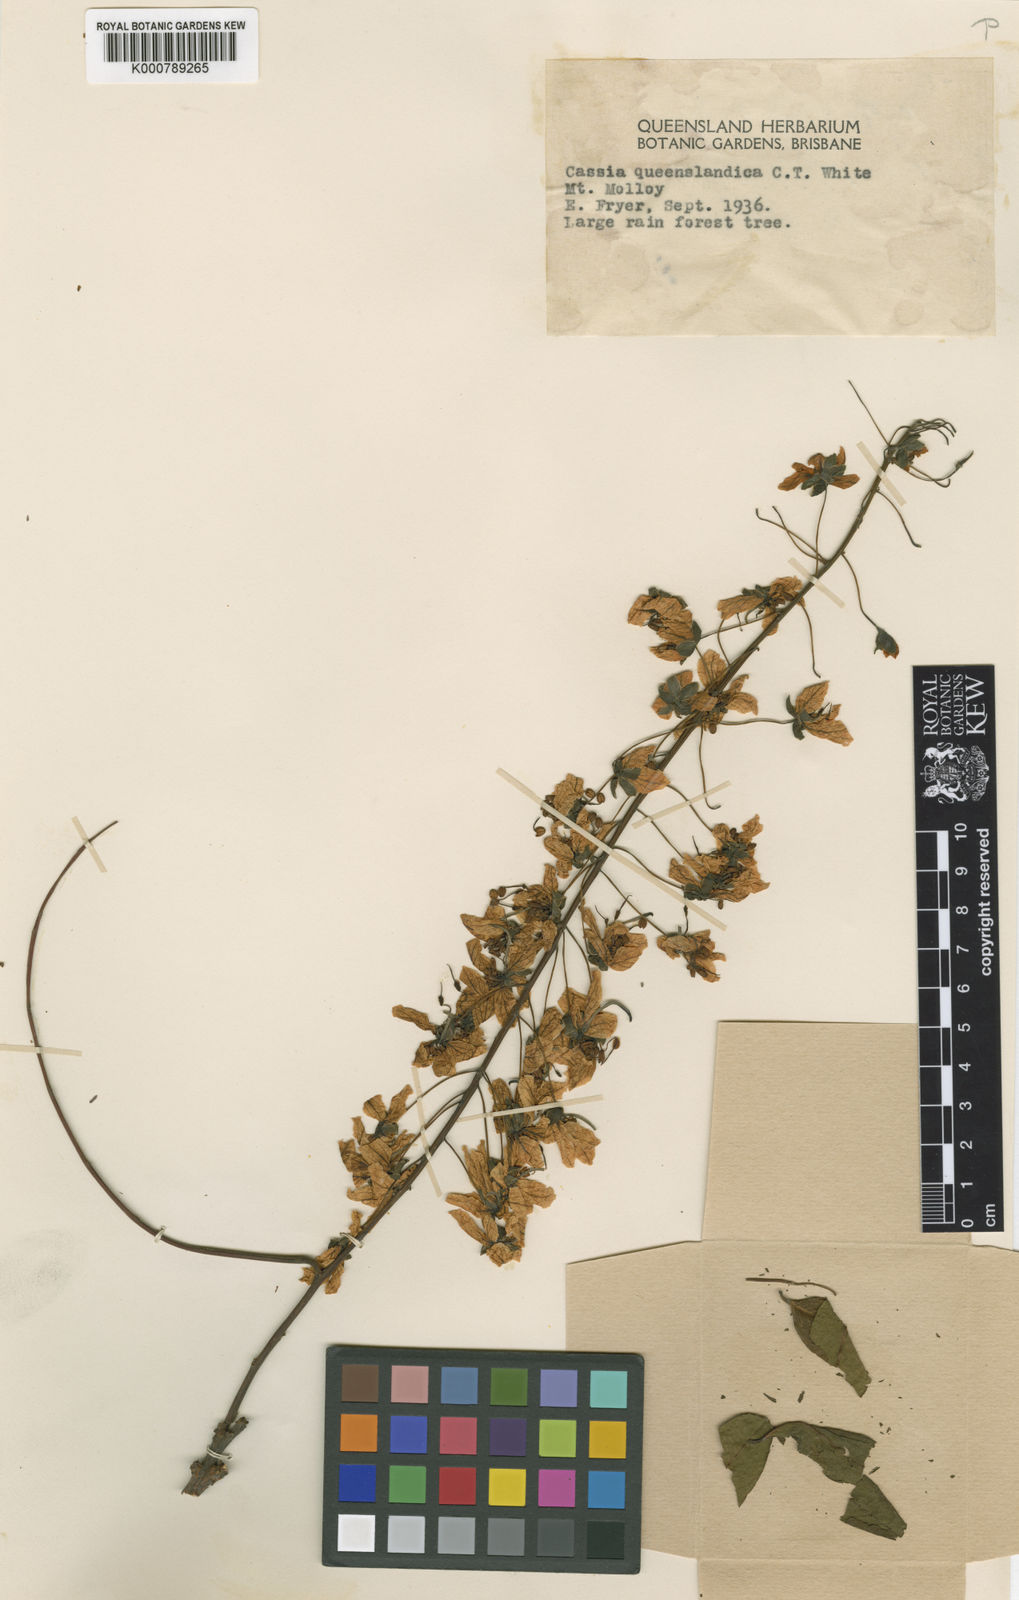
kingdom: Plantae
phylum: Tracheophyta
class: Magnoliopsida
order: Fabales
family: Fabaceae
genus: Cassia
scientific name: Cassia queenslandica
